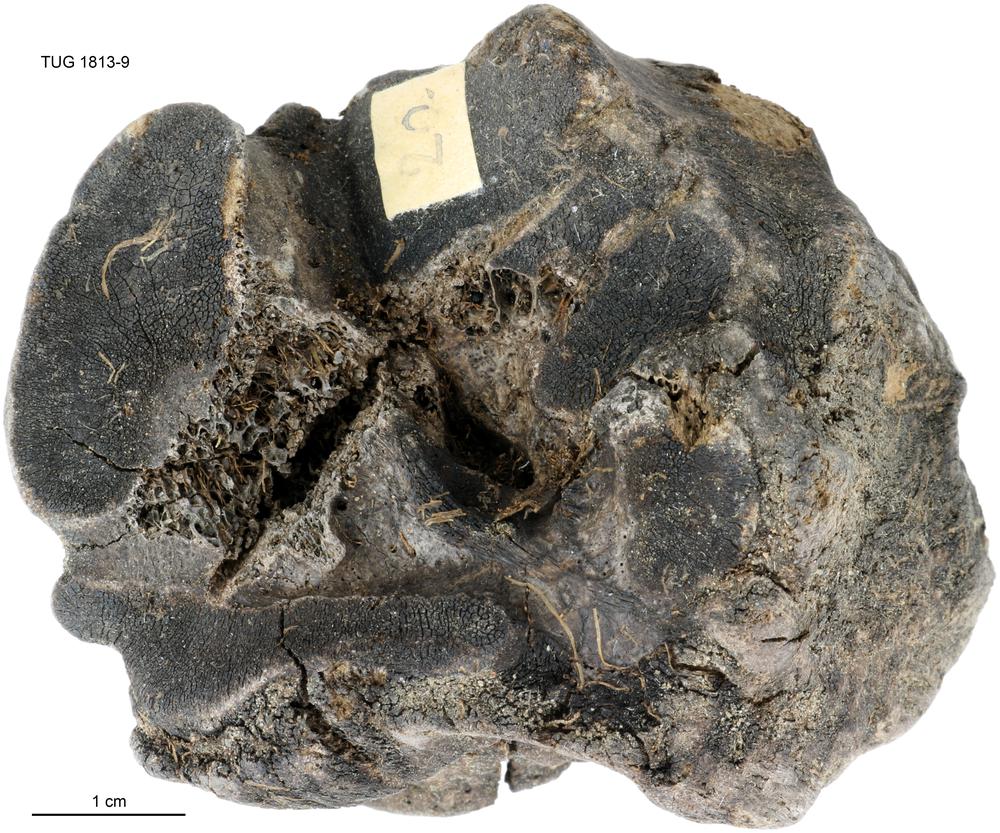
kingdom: Animalia
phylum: Chordata
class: Mammalia
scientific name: Mammalia
